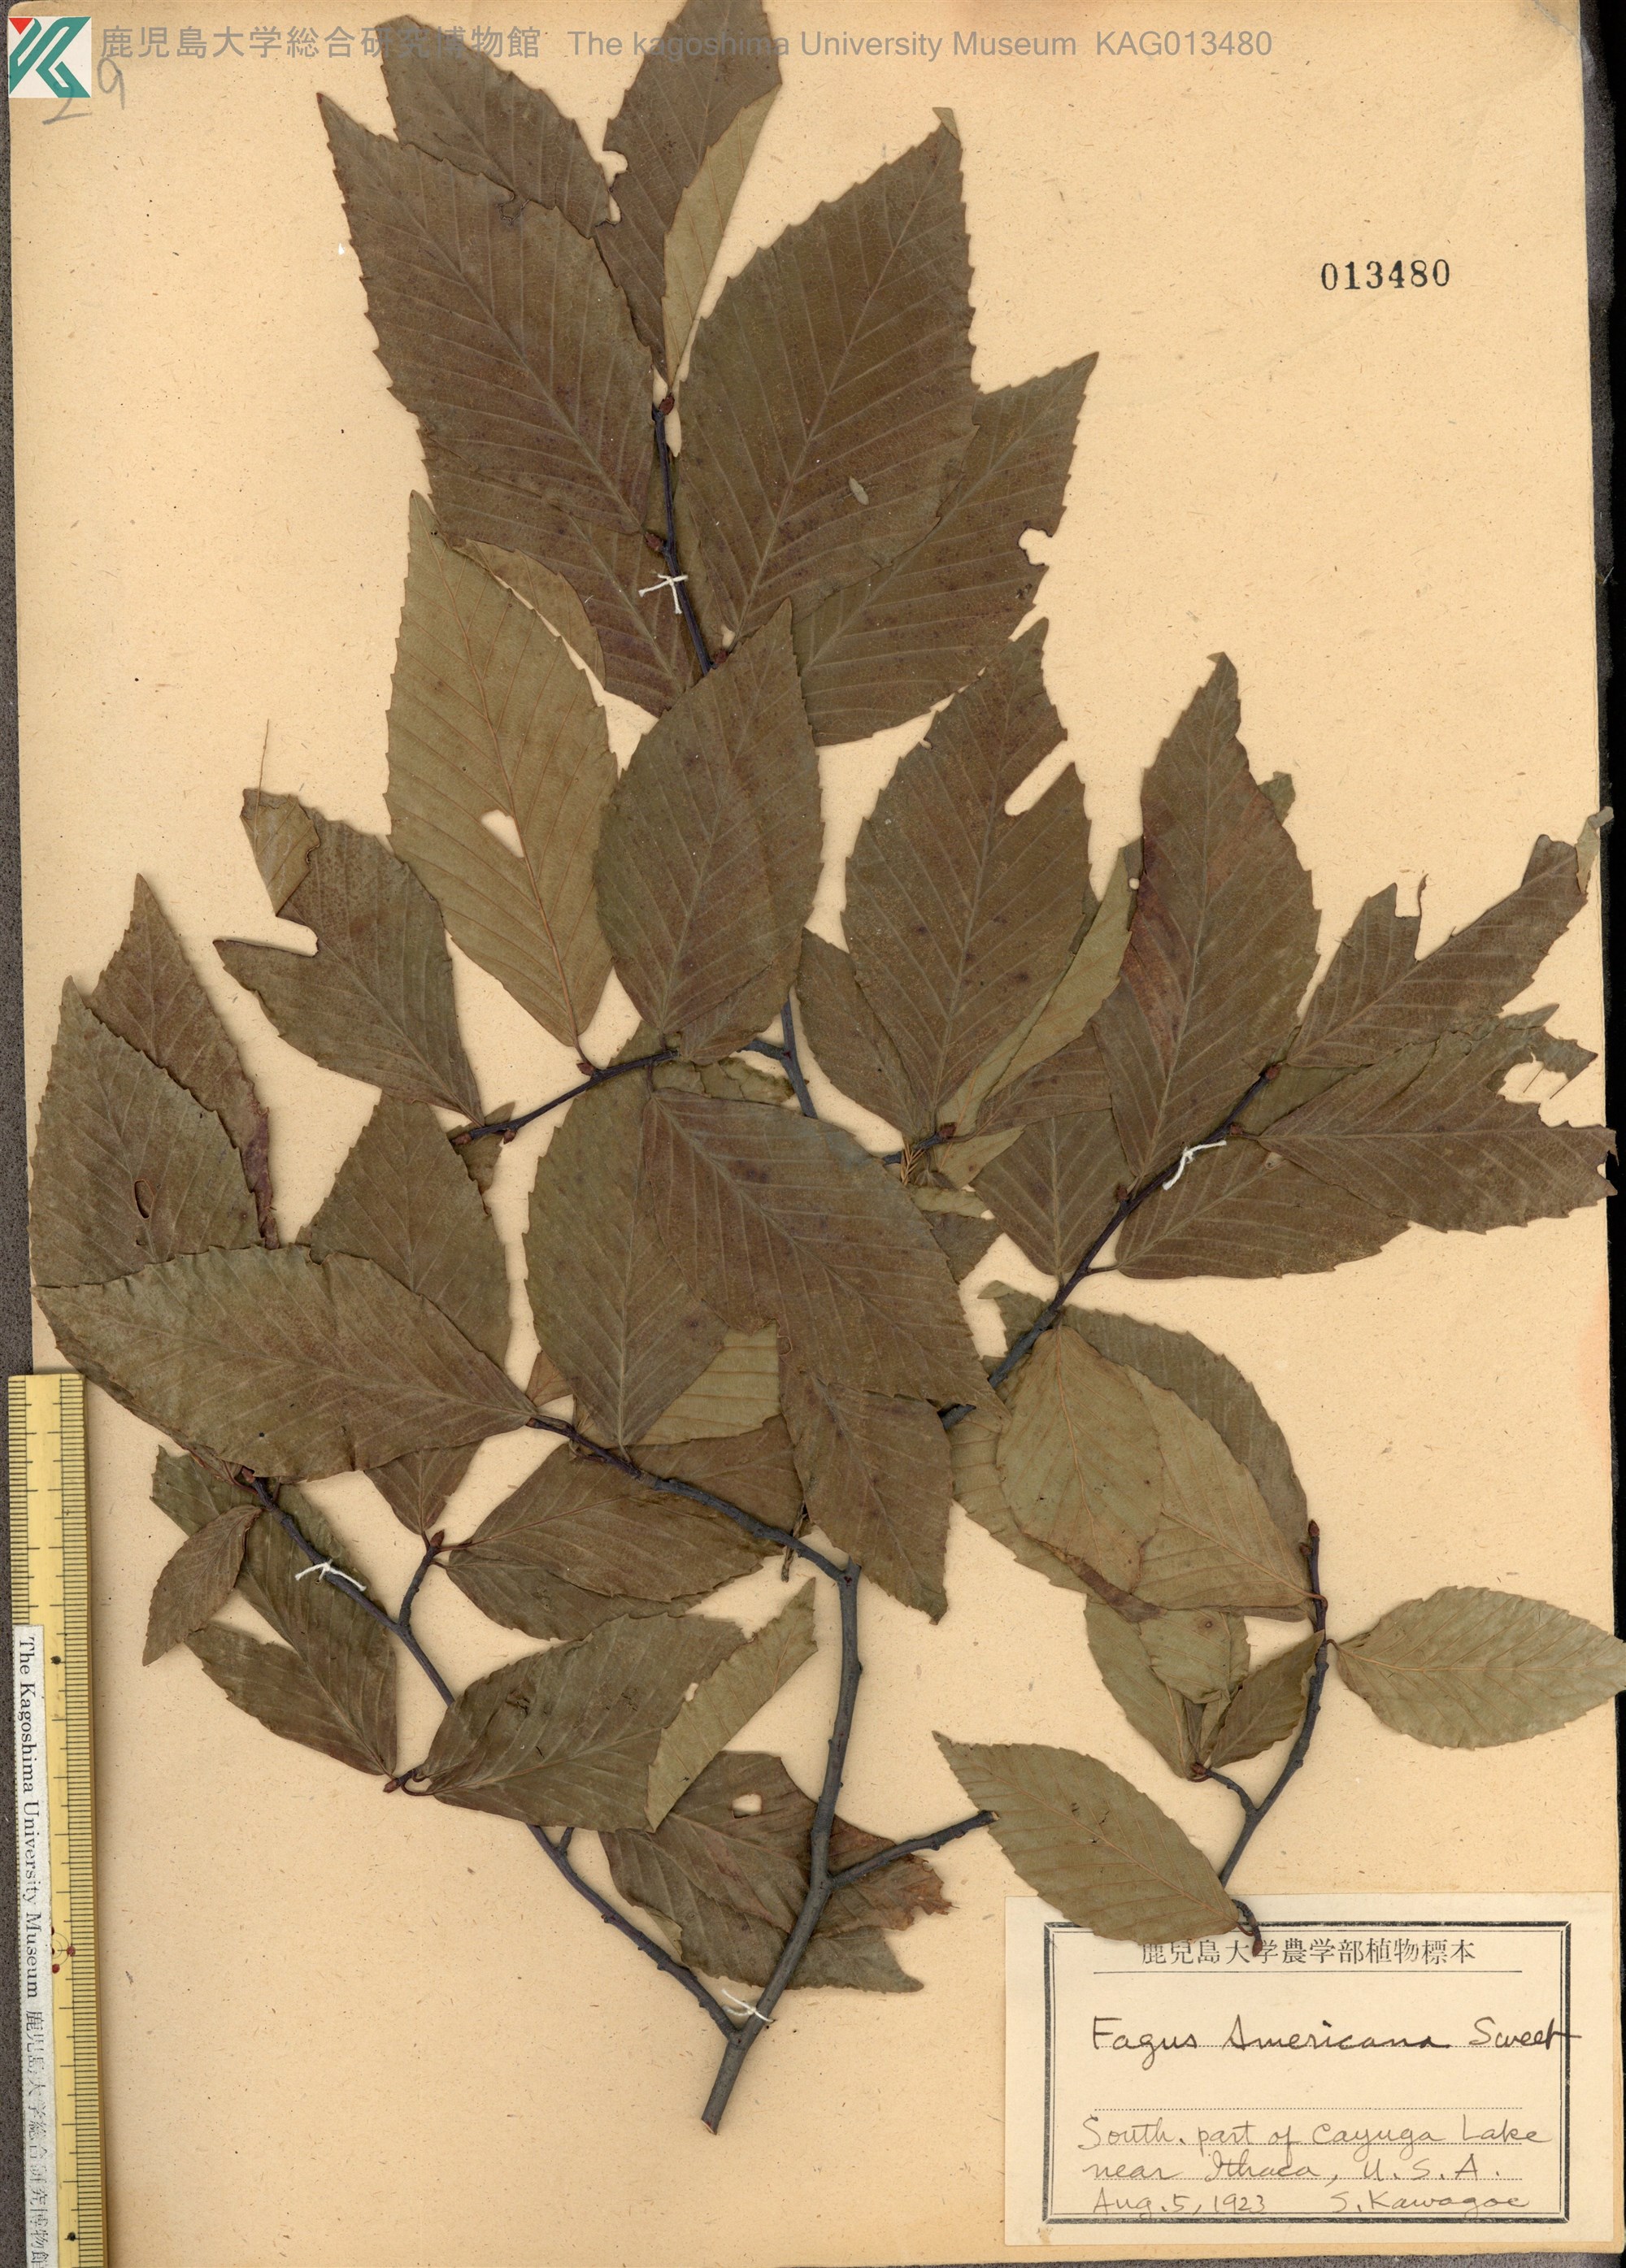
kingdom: Plantae
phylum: Tracheophyta
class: Magnoliopsida
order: Fagales
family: Fagaceae
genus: Fagus
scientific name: Fagus grandifolia
